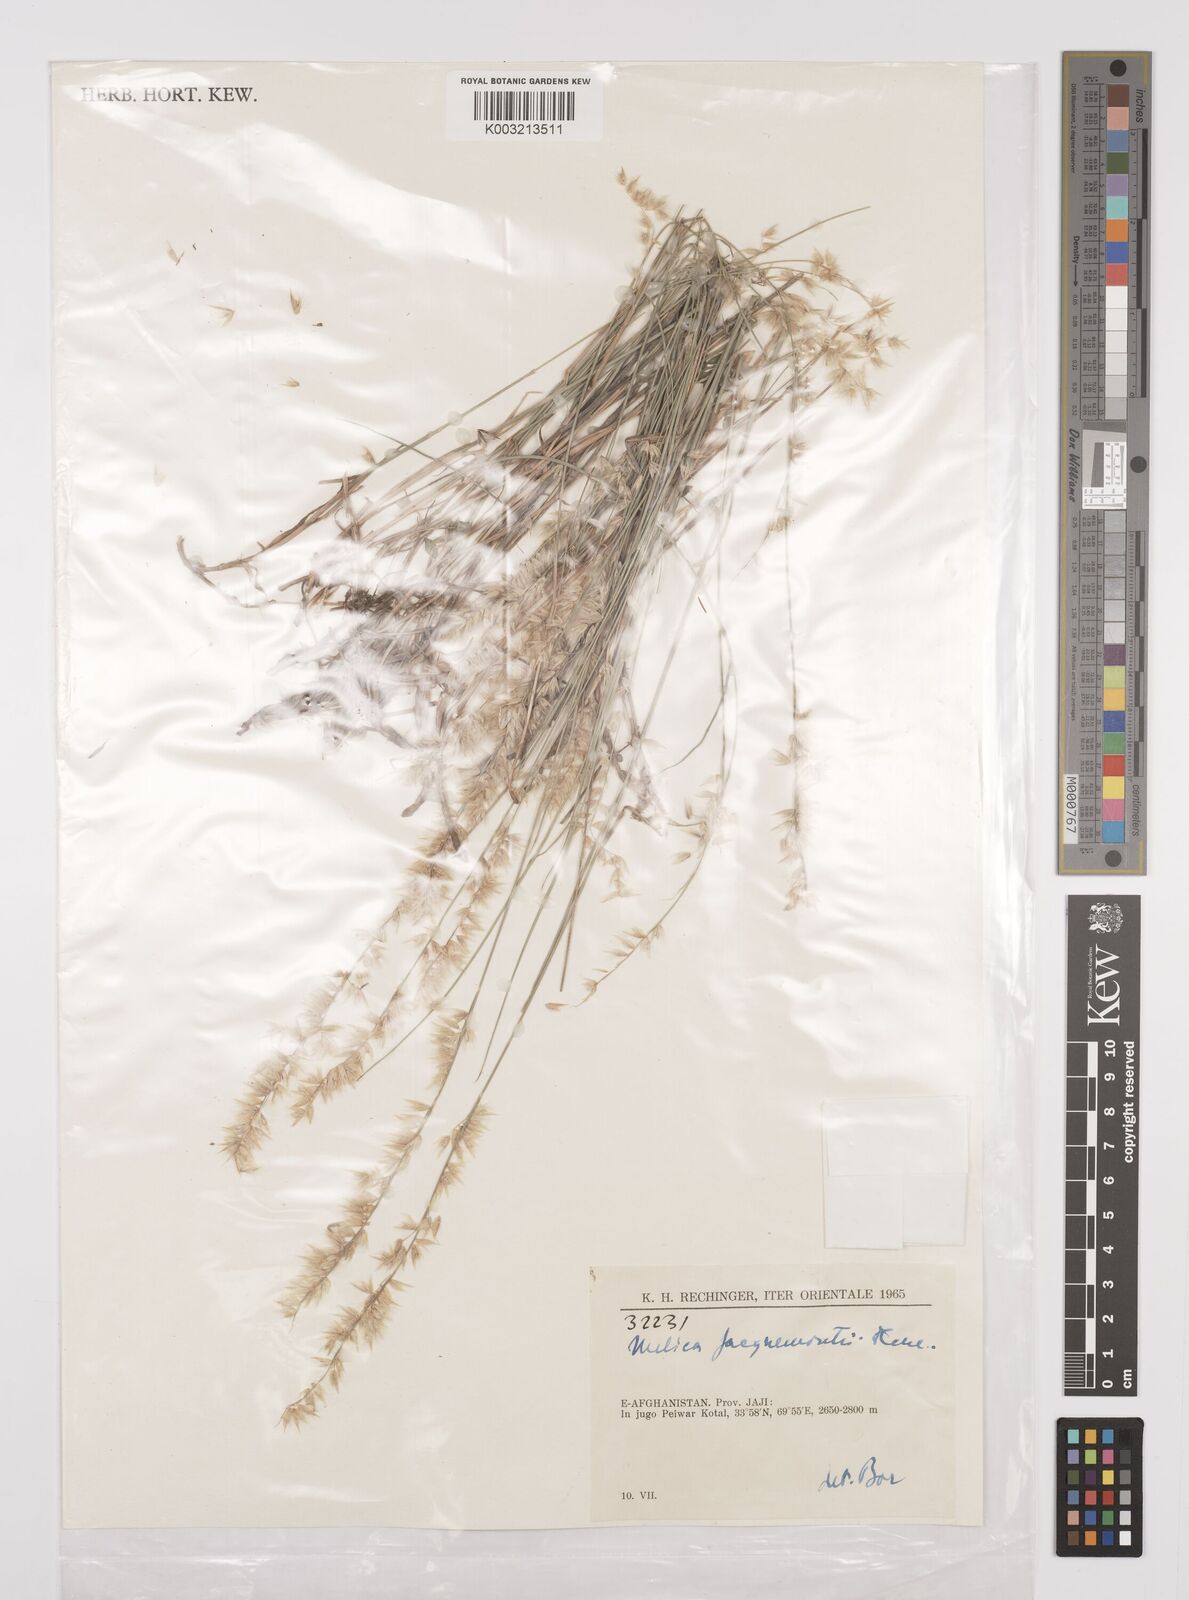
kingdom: Plantae
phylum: Tracheophyta
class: Liliopsida
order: Poales
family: Poaceae
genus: Melica
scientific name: Melica persica
